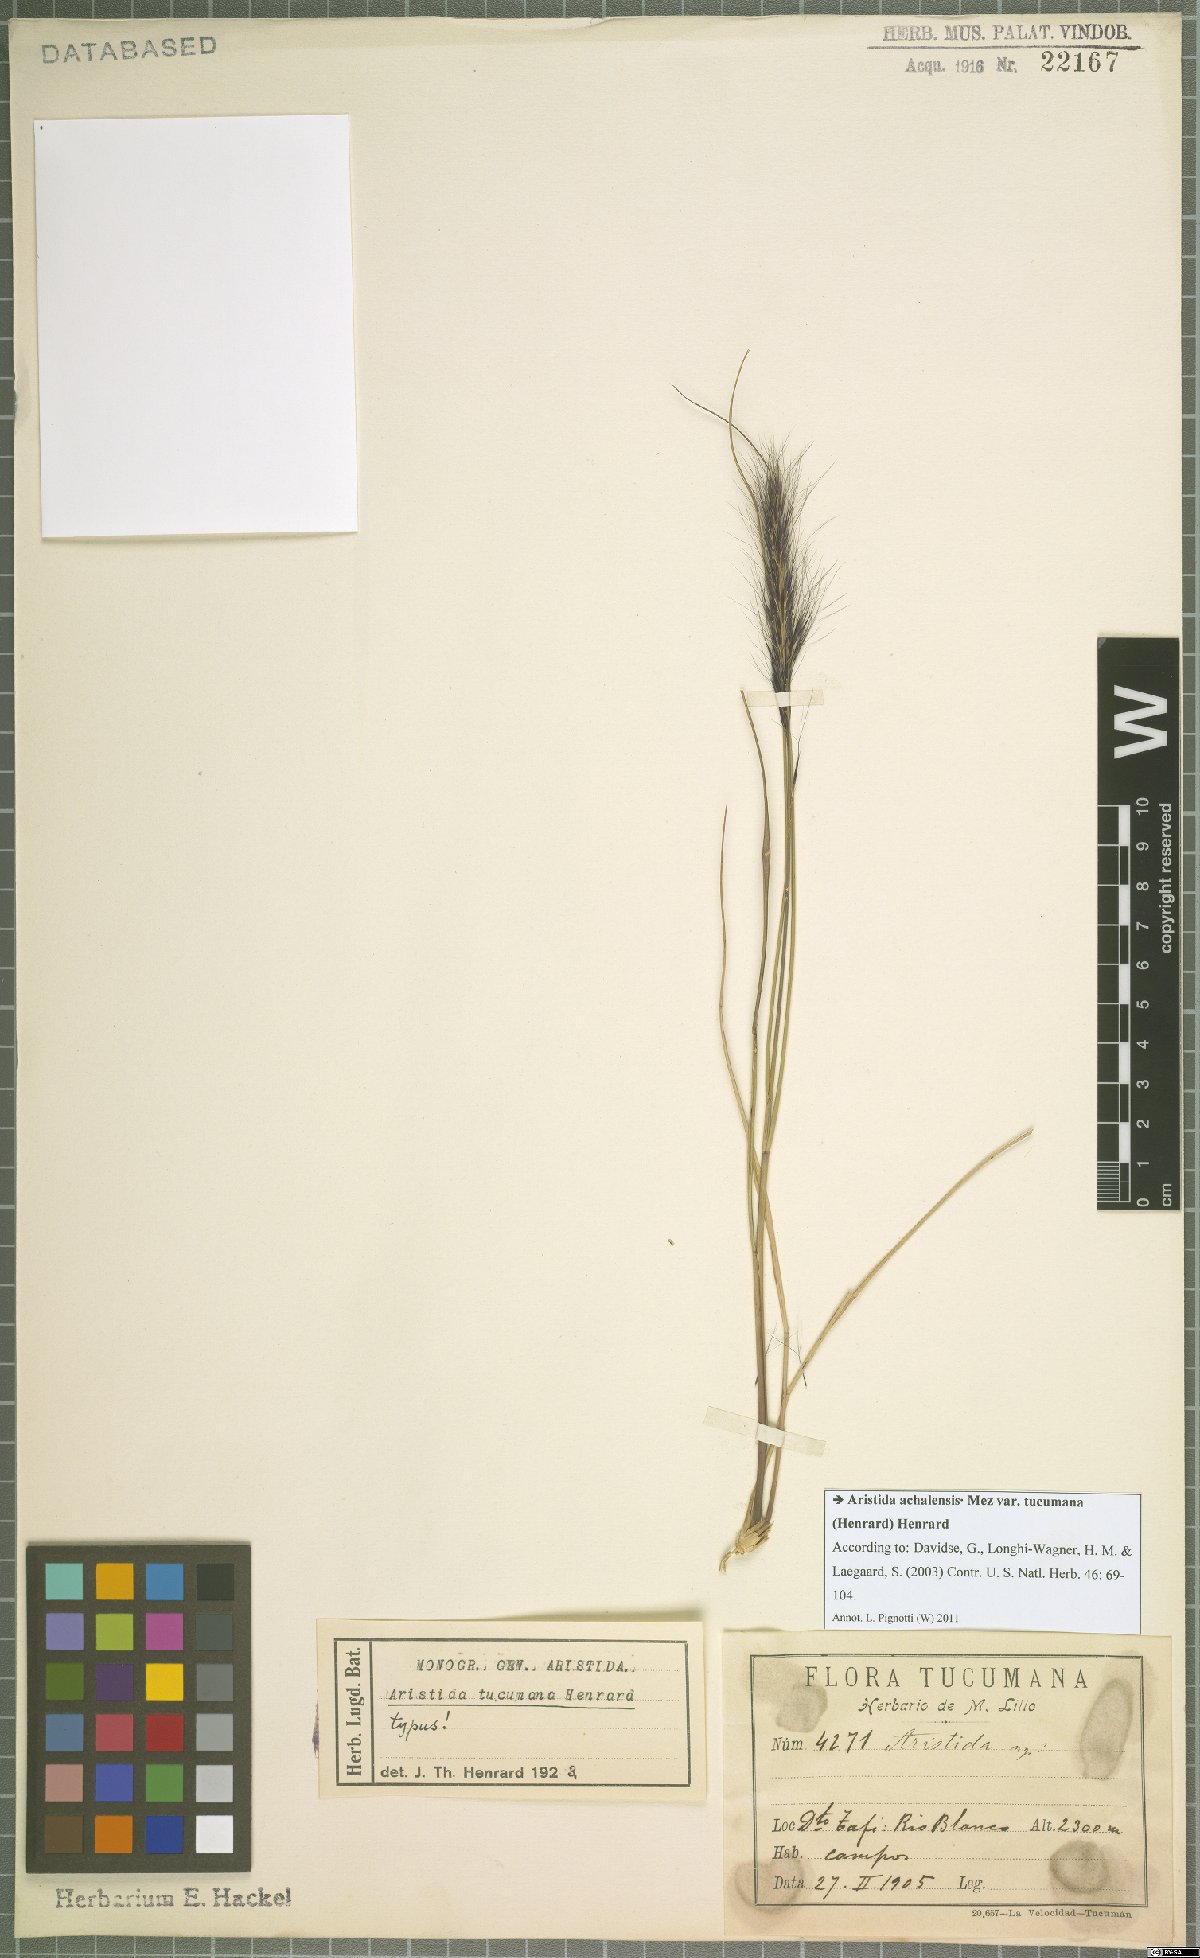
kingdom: Plantae
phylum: Tracheophyta
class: Liliopsida
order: Poales
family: Poaceae
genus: Aristida
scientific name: Aristida achalensis
